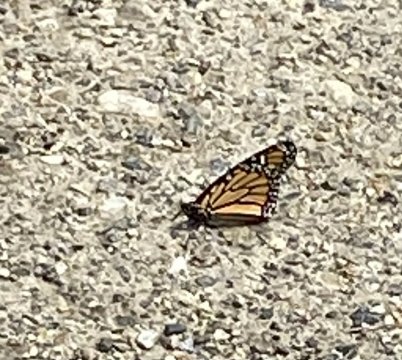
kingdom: Animalia
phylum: Arthropoda
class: Insecta
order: Lepidoptera
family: Nymphalidae
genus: Danaus
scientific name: Danaus plexippus
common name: Monarch
